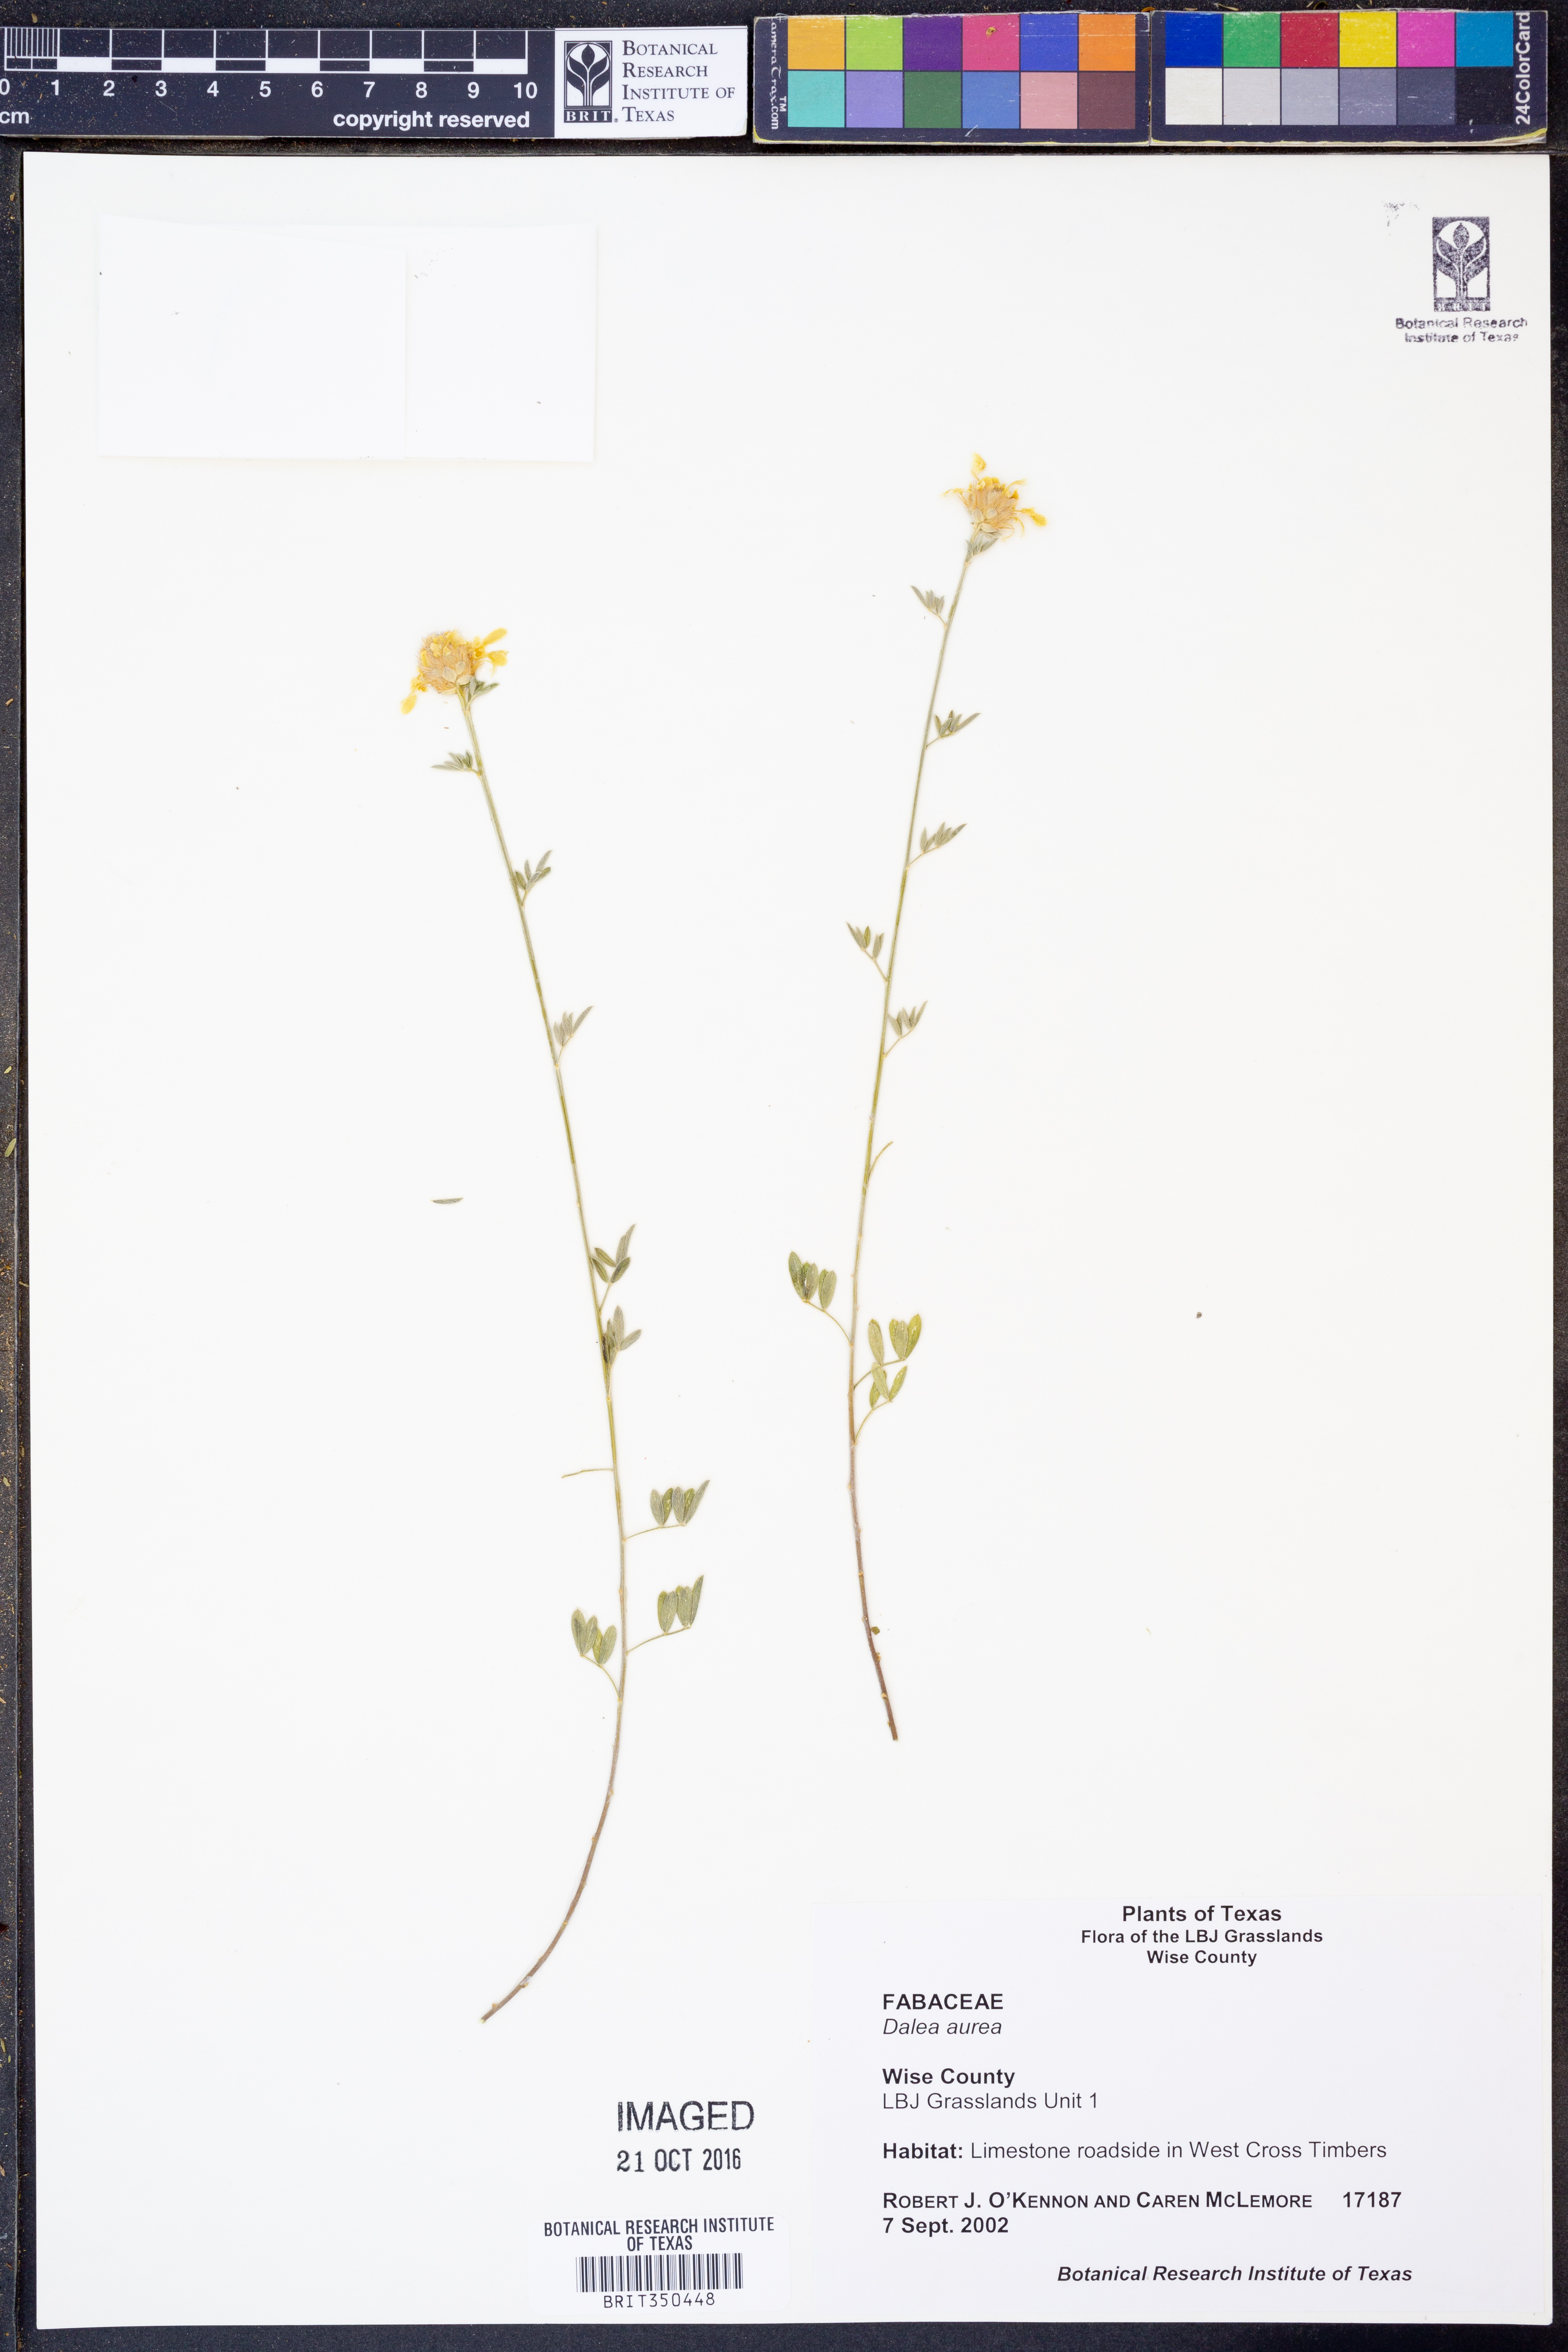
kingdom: Plantae
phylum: Tracheophyta
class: Magnoliopsida
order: Fabales
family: Fabaceae
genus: Dalea
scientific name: Dalea aurea
